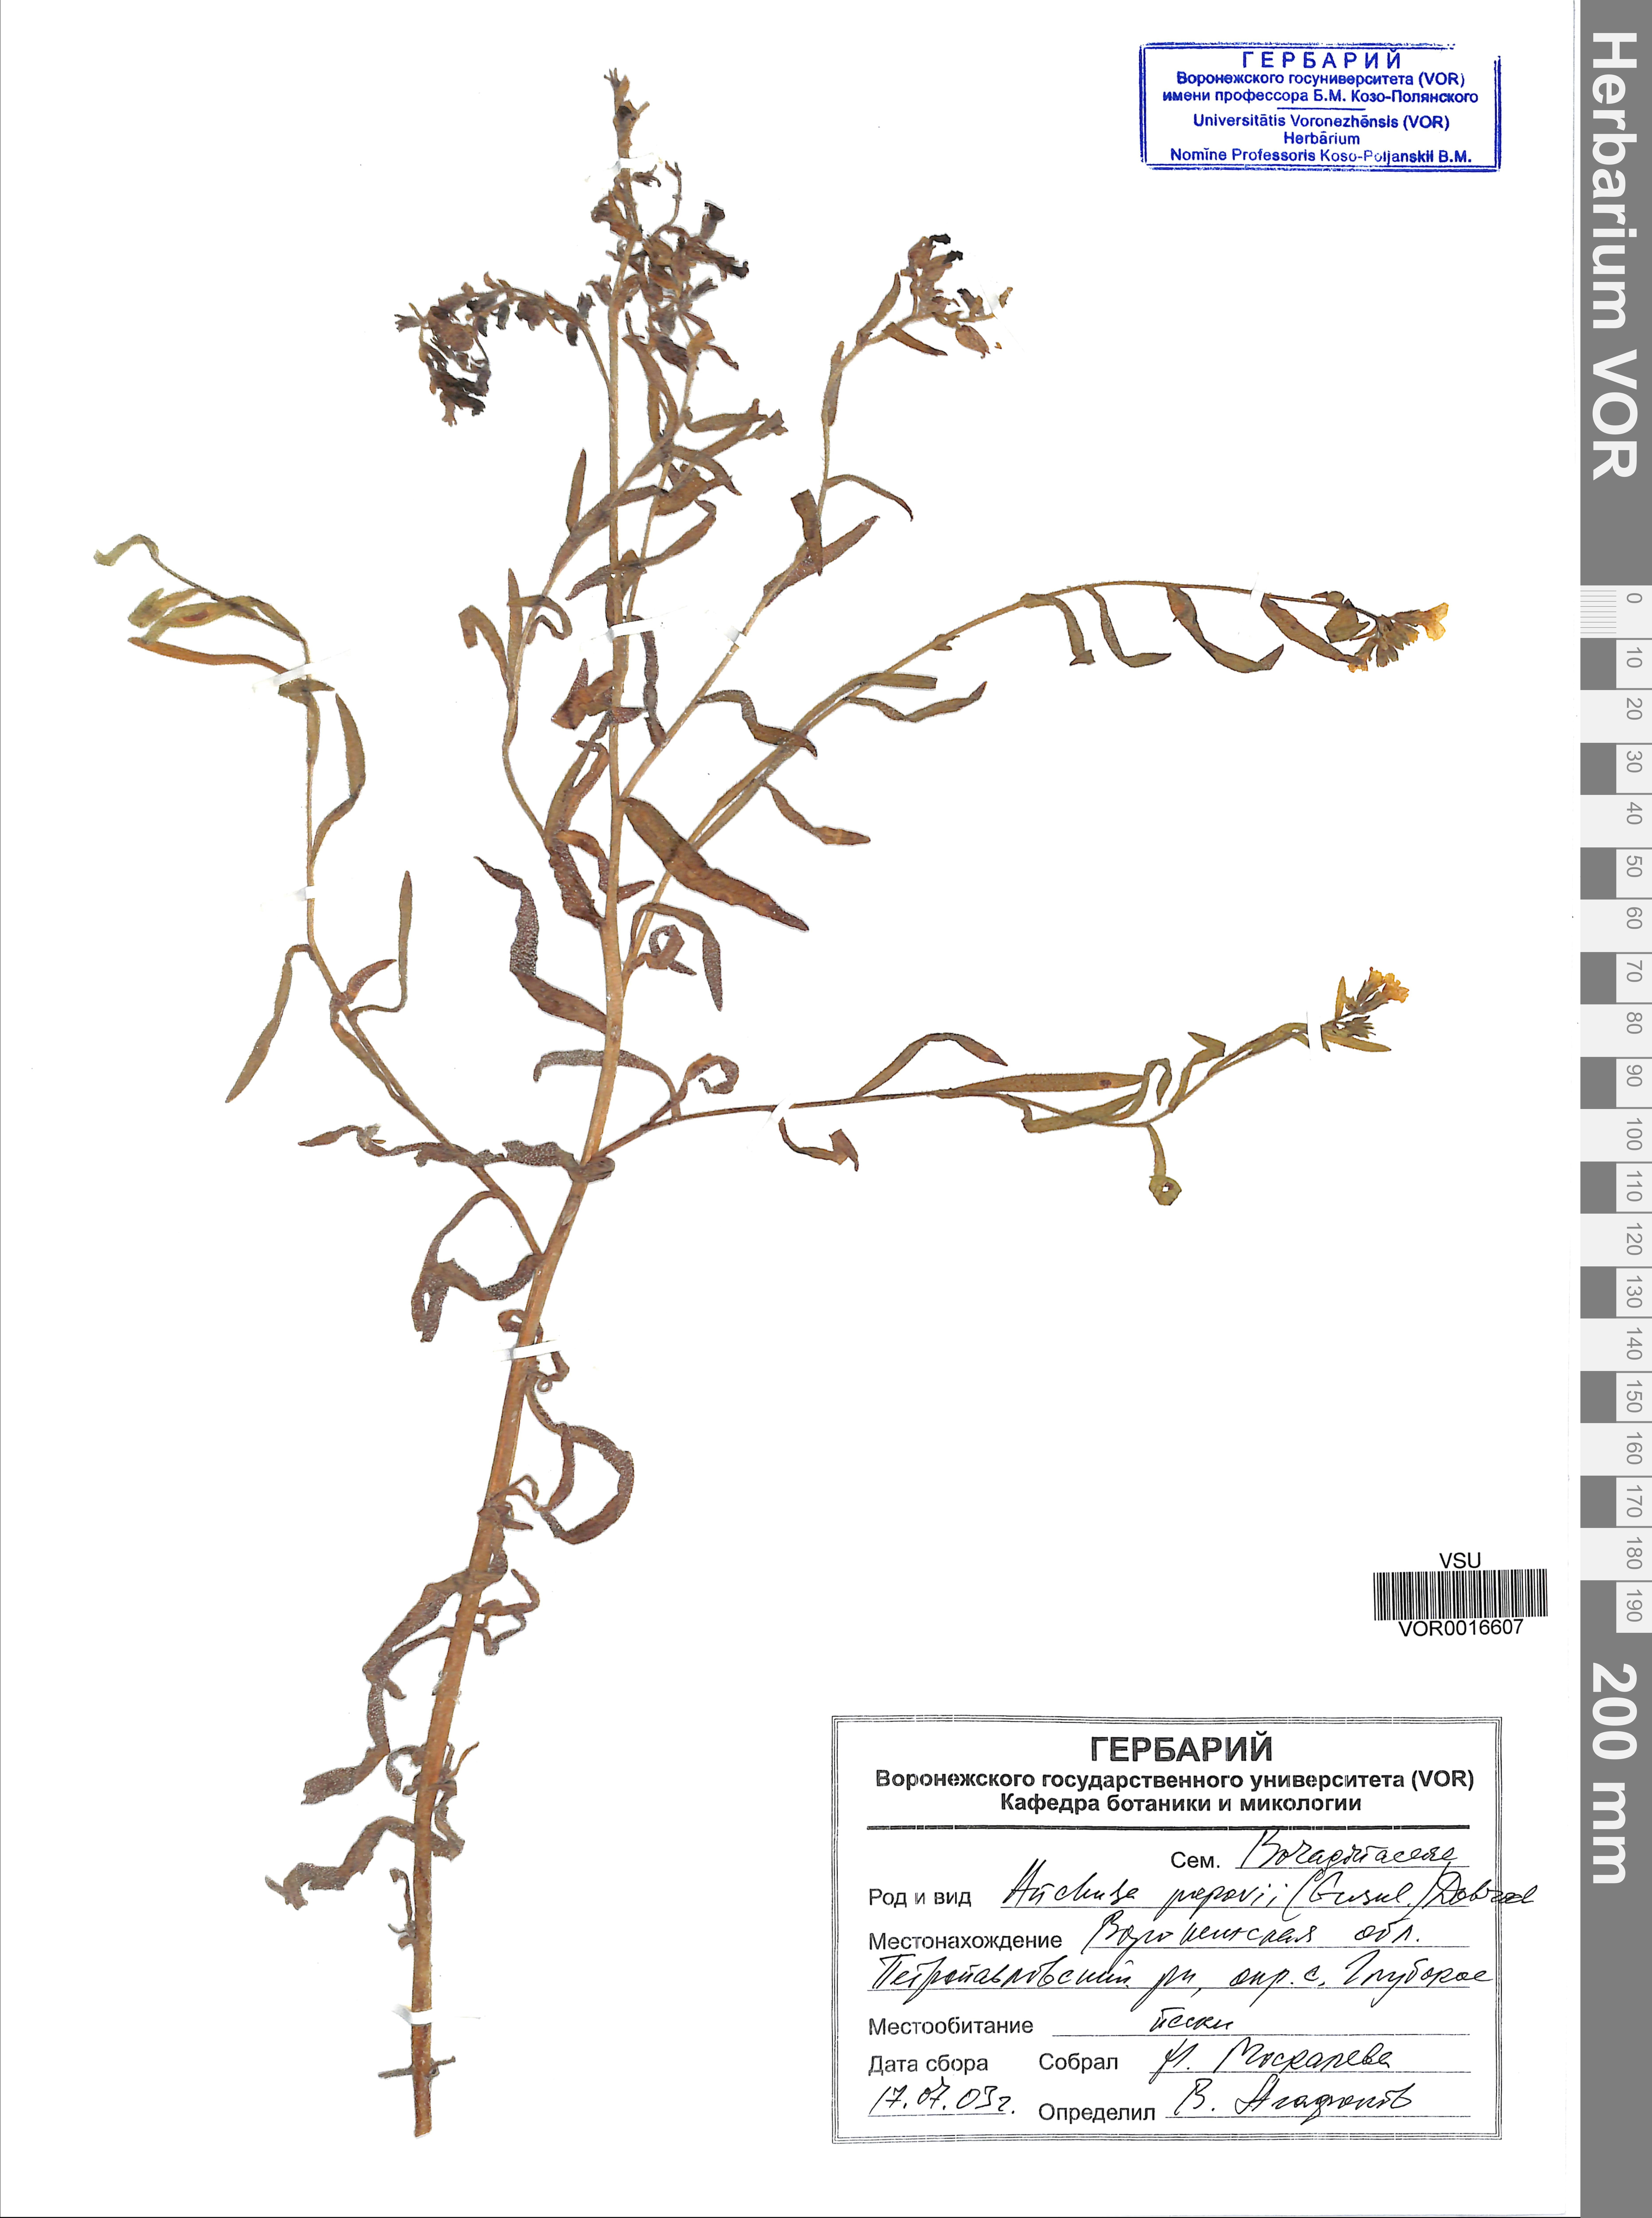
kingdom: Plantae
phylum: Tracheophyta
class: Magnoliopsida
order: Boraginales
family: Boraginaceae
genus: Anchusa
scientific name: Anchusa ochroleuca
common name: Yellow alkanet
